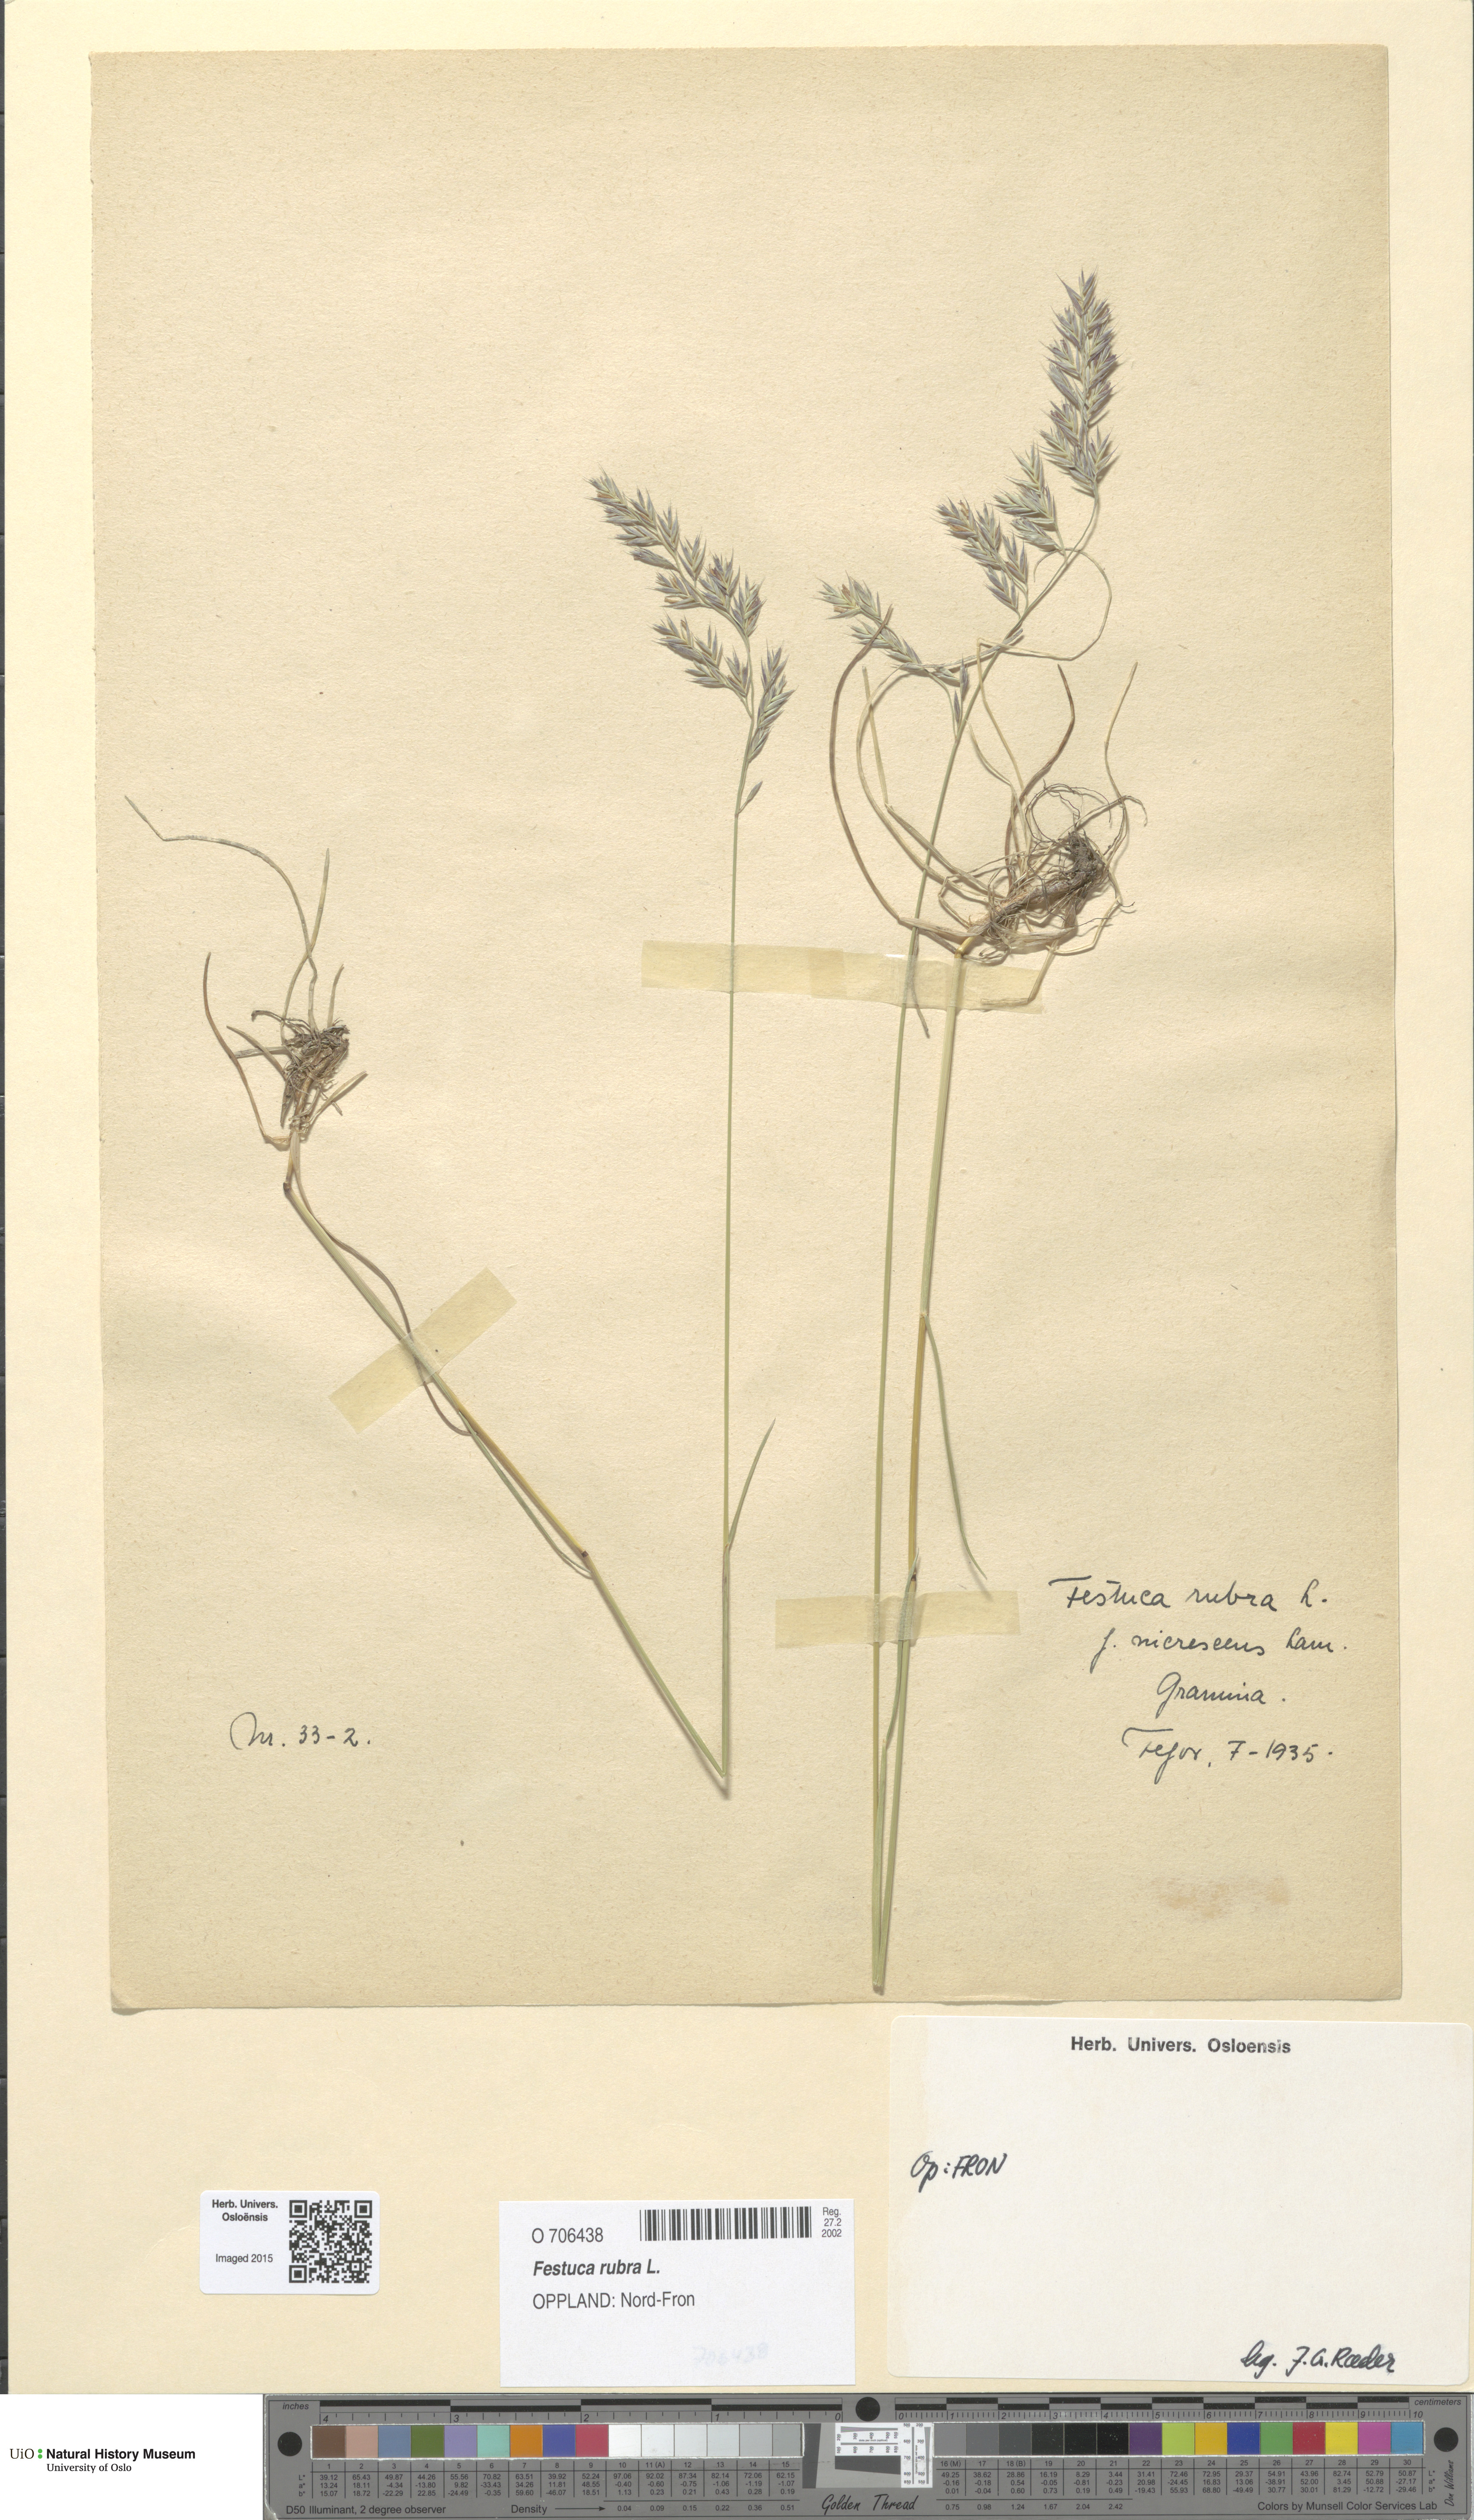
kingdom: Plantae
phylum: Tracheophyta
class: Liliopsida
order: Poales
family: Poaceae
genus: Festuca
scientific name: Festuca rubra
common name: Red fescue
